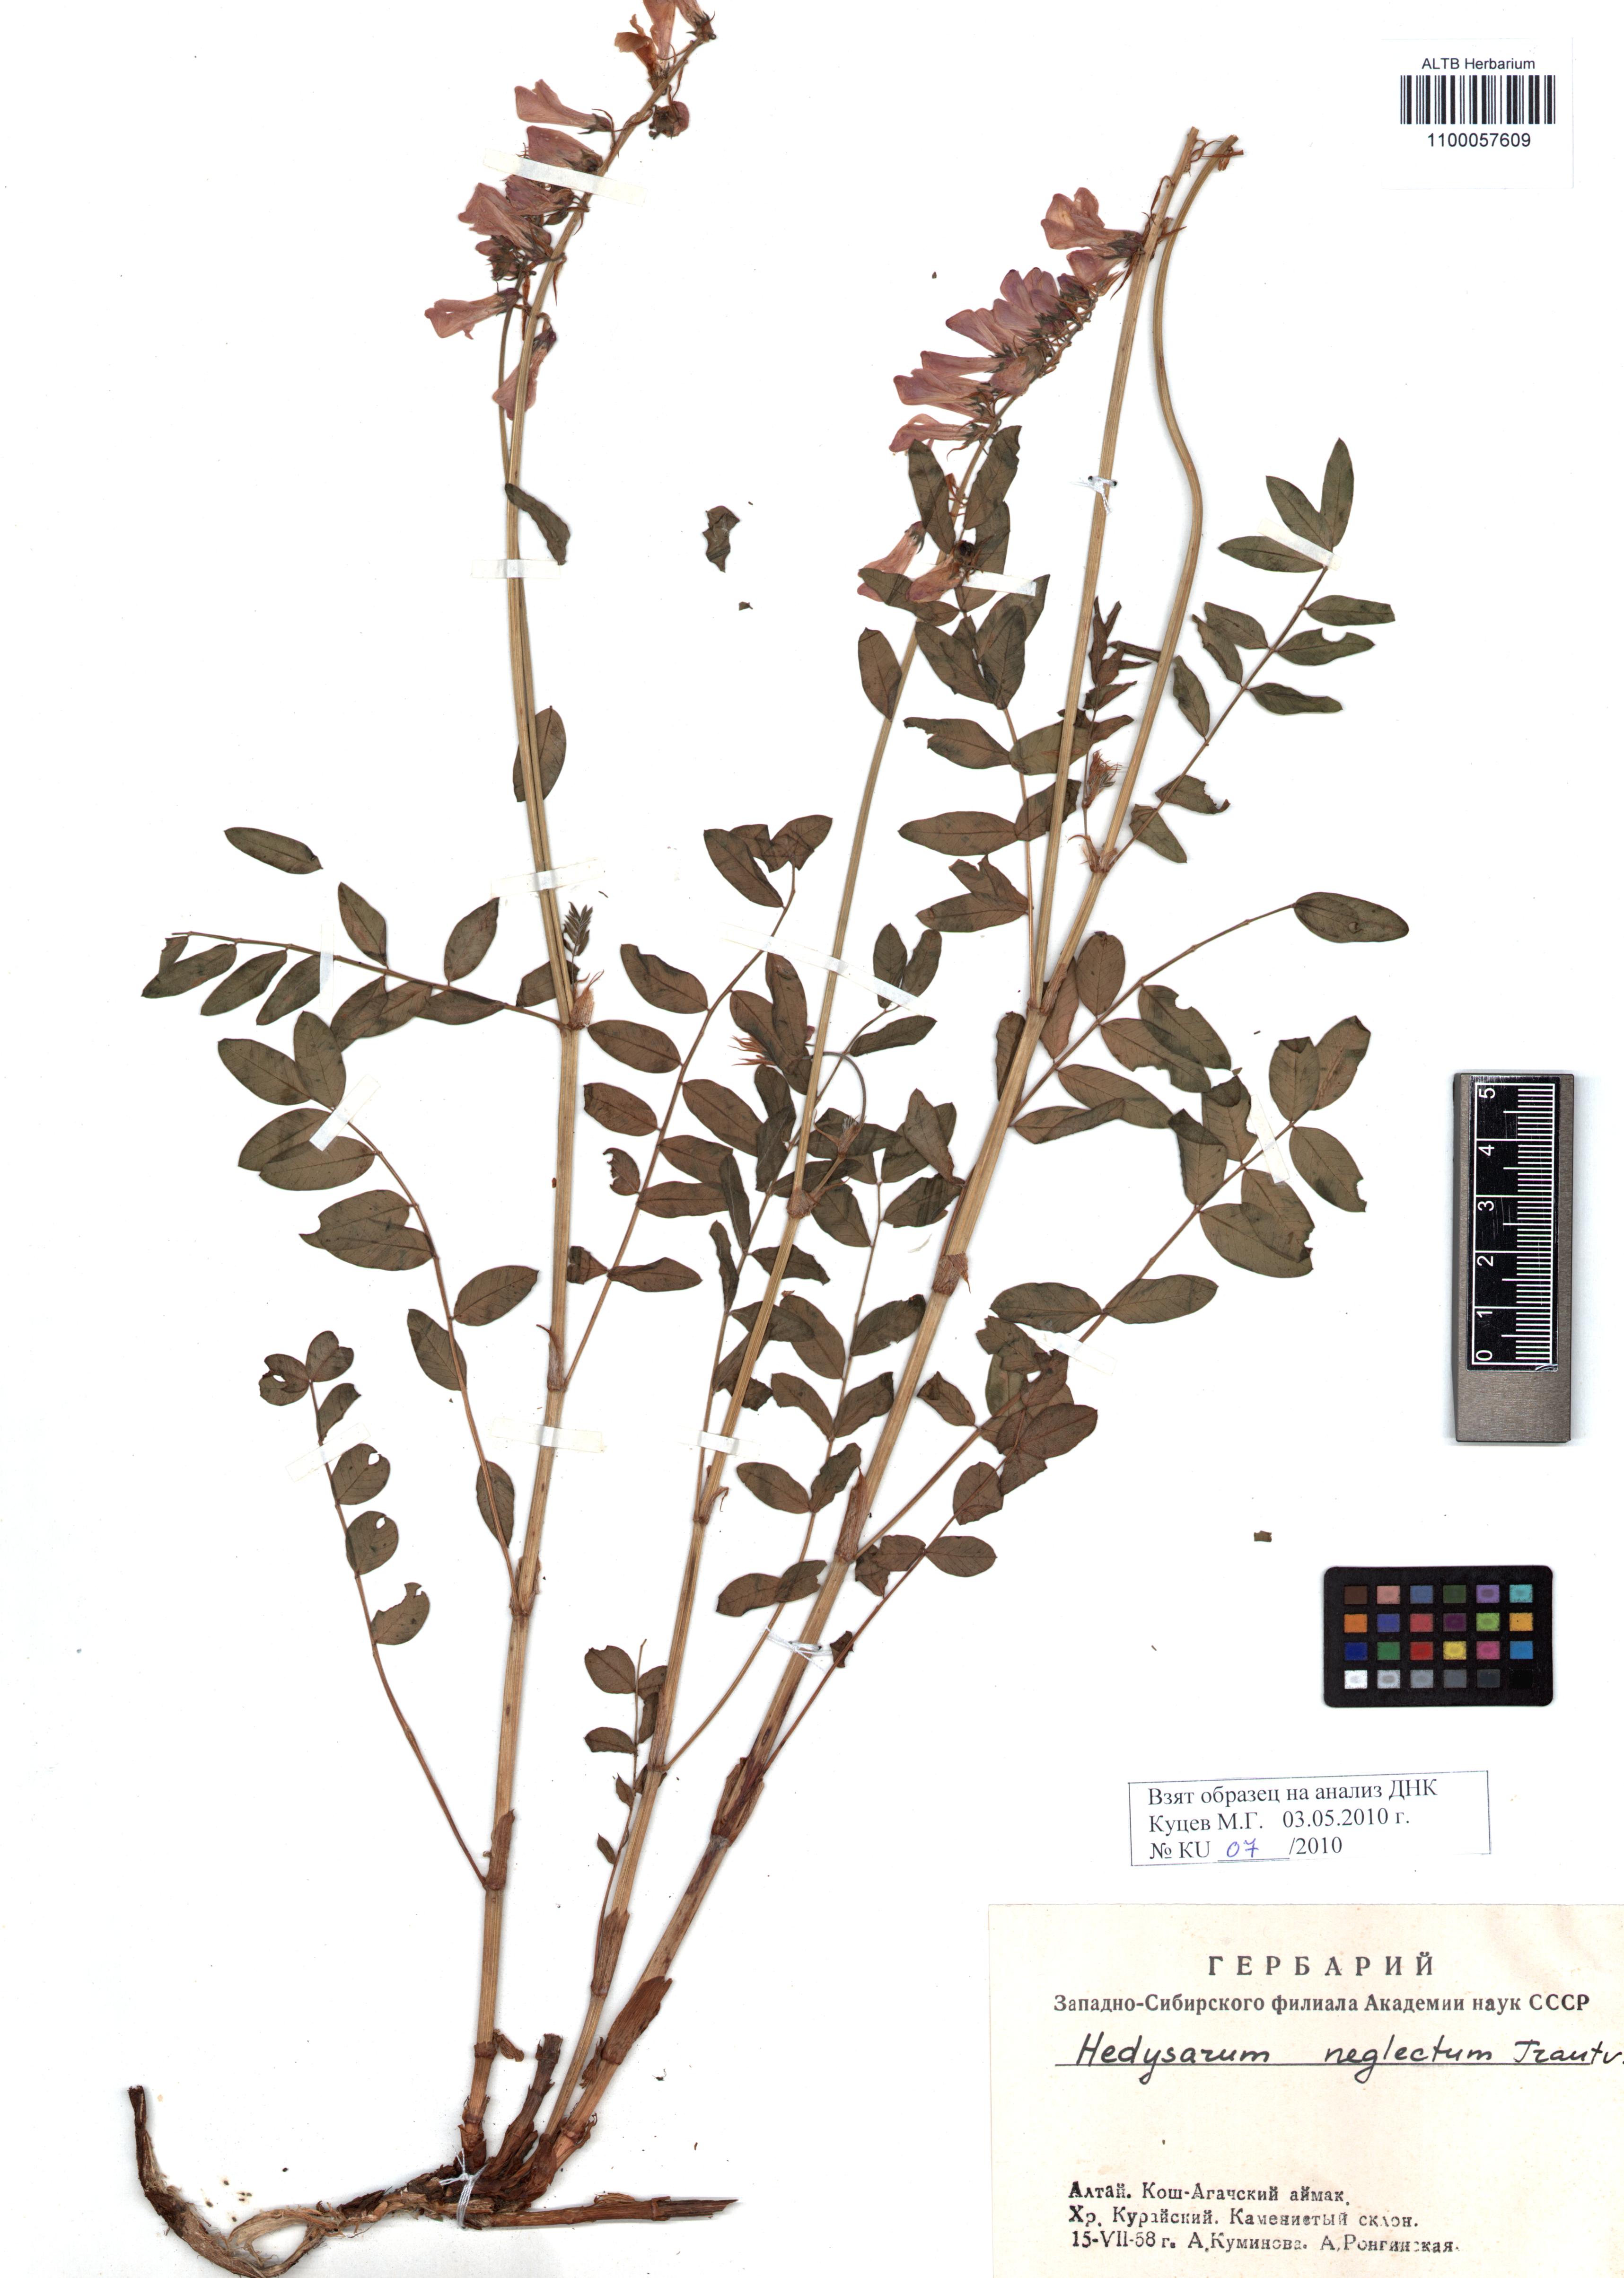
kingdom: Plantae
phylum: Tracheophyta
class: Magnoliopsida
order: Fabales
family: Fabaceae
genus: Hedysarum
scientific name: Hedysarum neglectum
